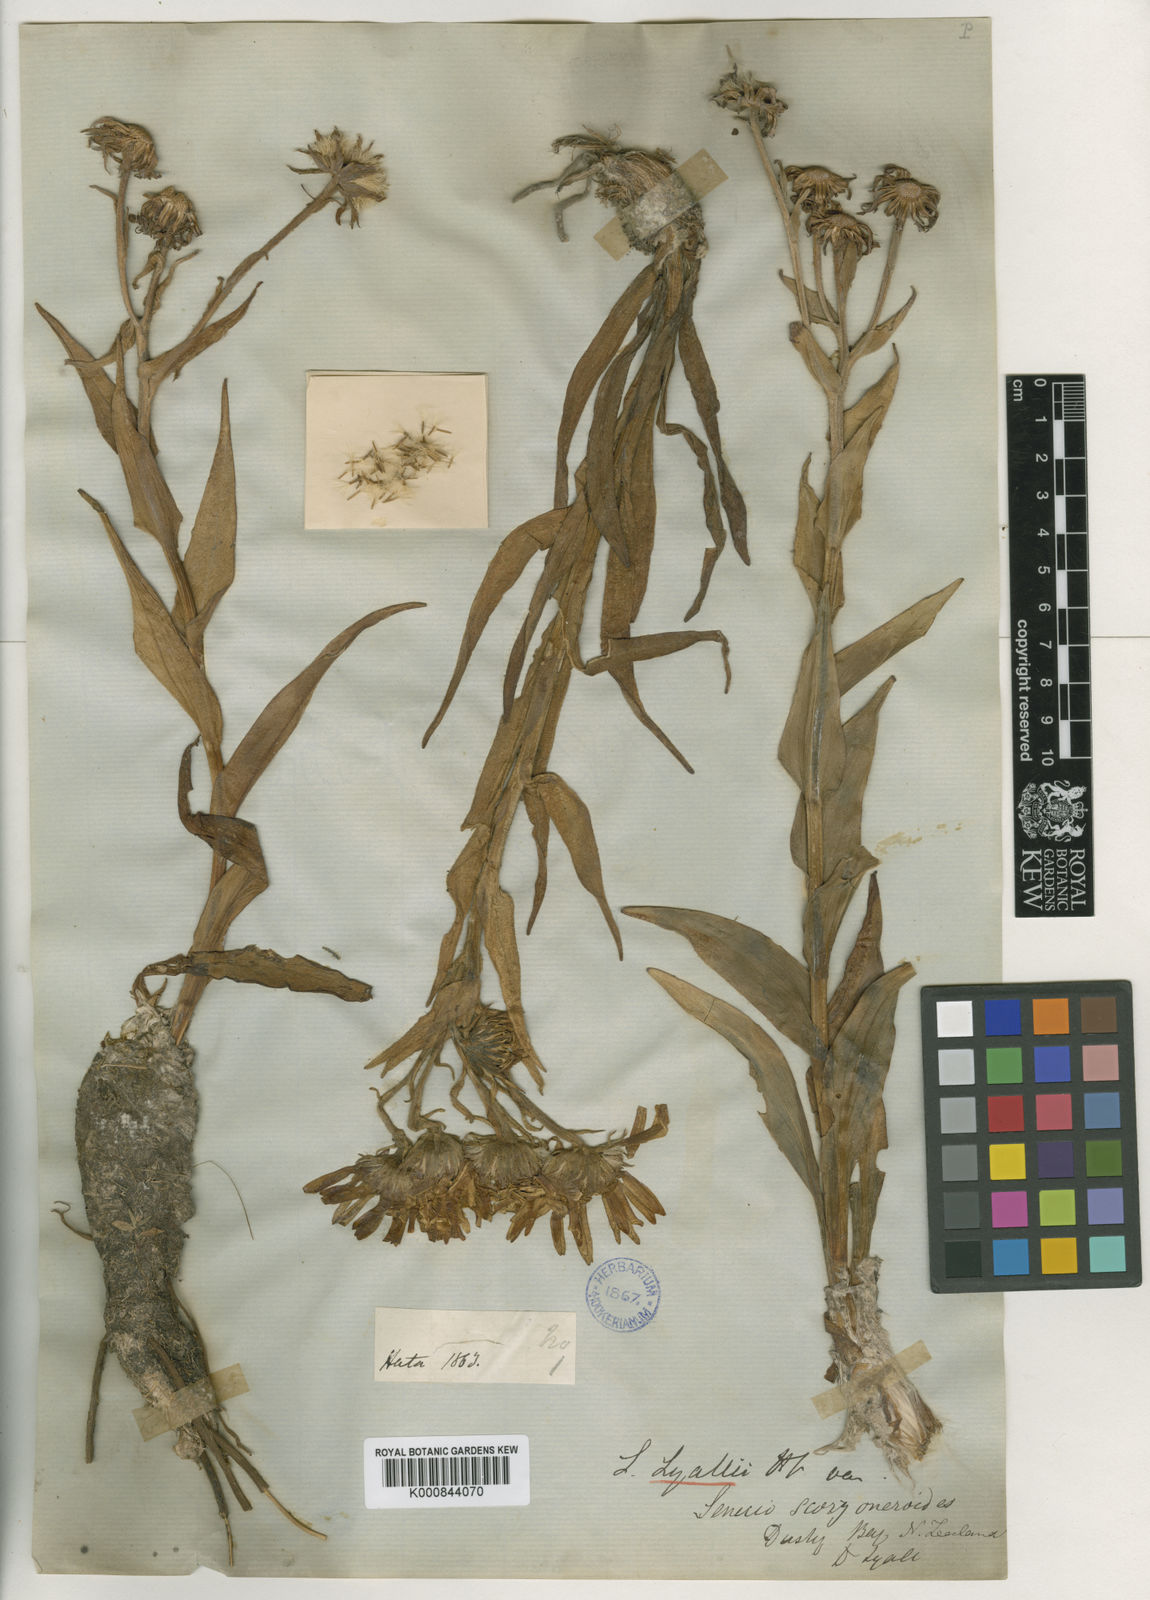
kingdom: Plantae
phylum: Tracheophyta
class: Magnoliopsida
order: Asterales
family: Asteraceae
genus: Dolichoglottis
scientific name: Dolichoglottis scorzoneroides
